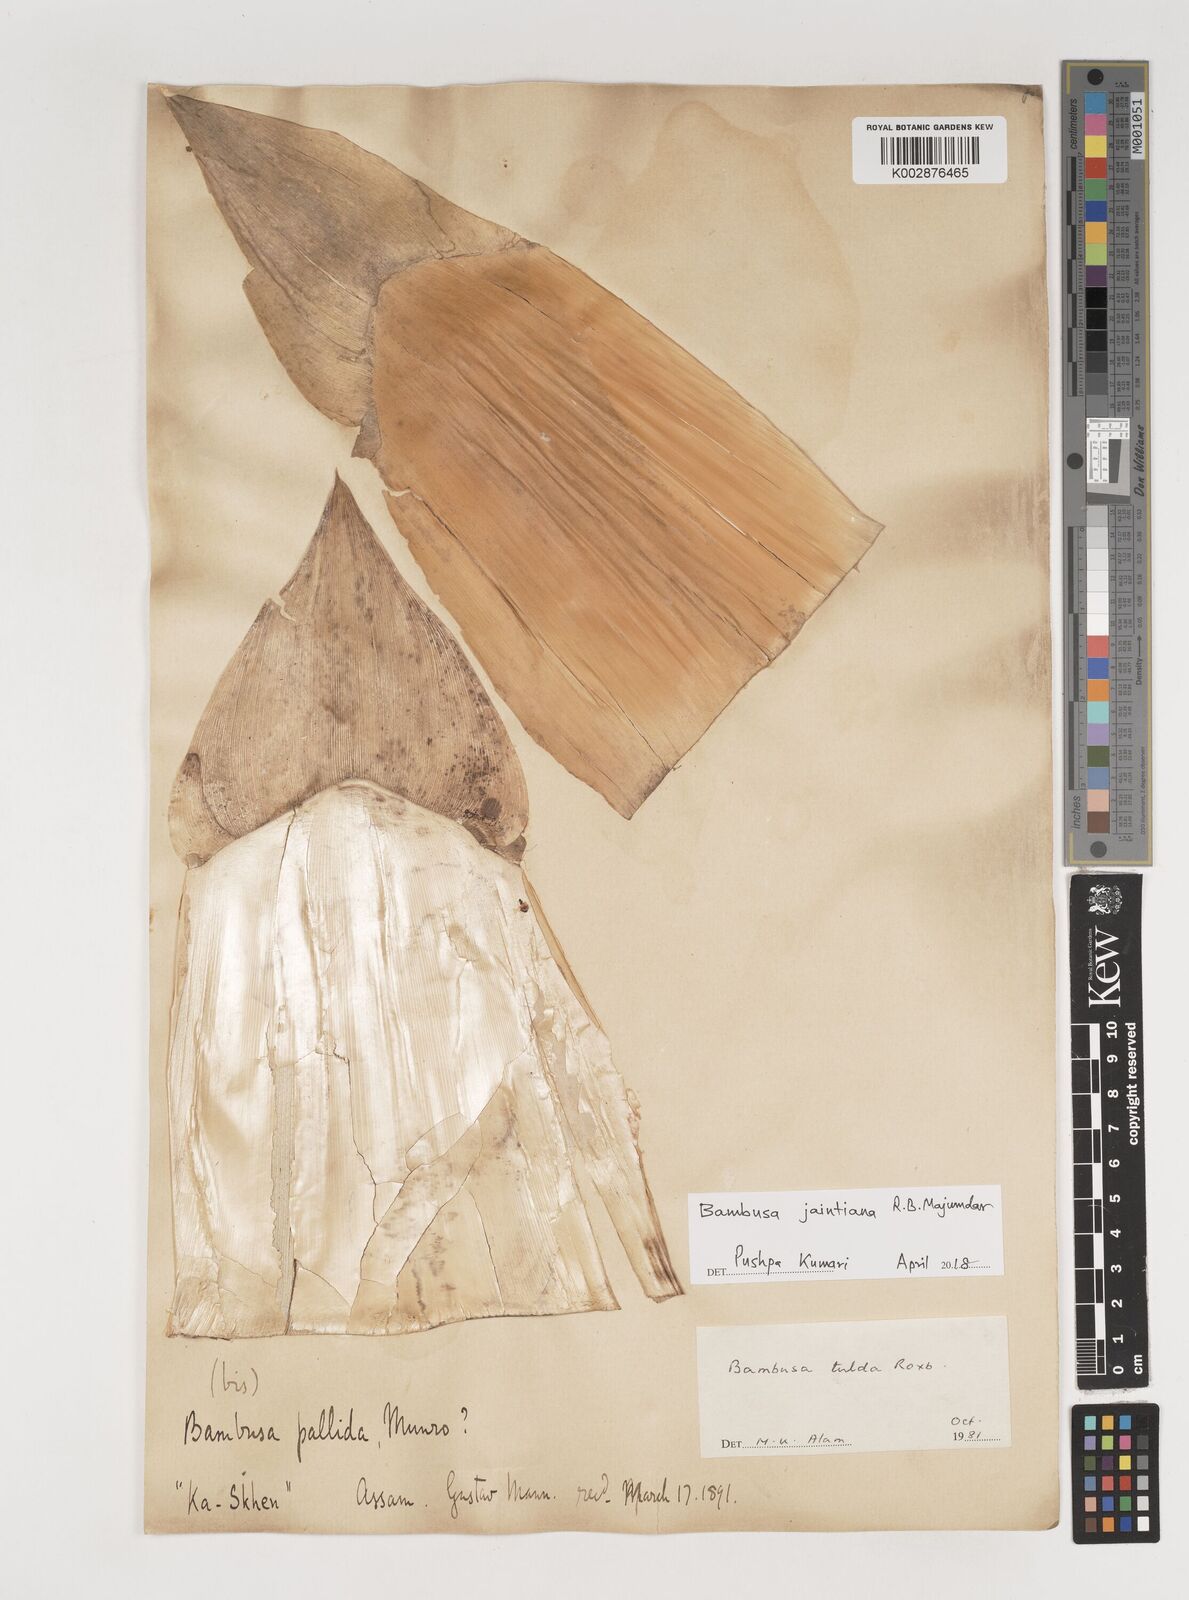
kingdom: Plantae
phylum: Tracheophyta
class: Liliopsida
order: Poales
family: Poaceae
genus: Bambusa
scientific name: Bambusa jaintiana
